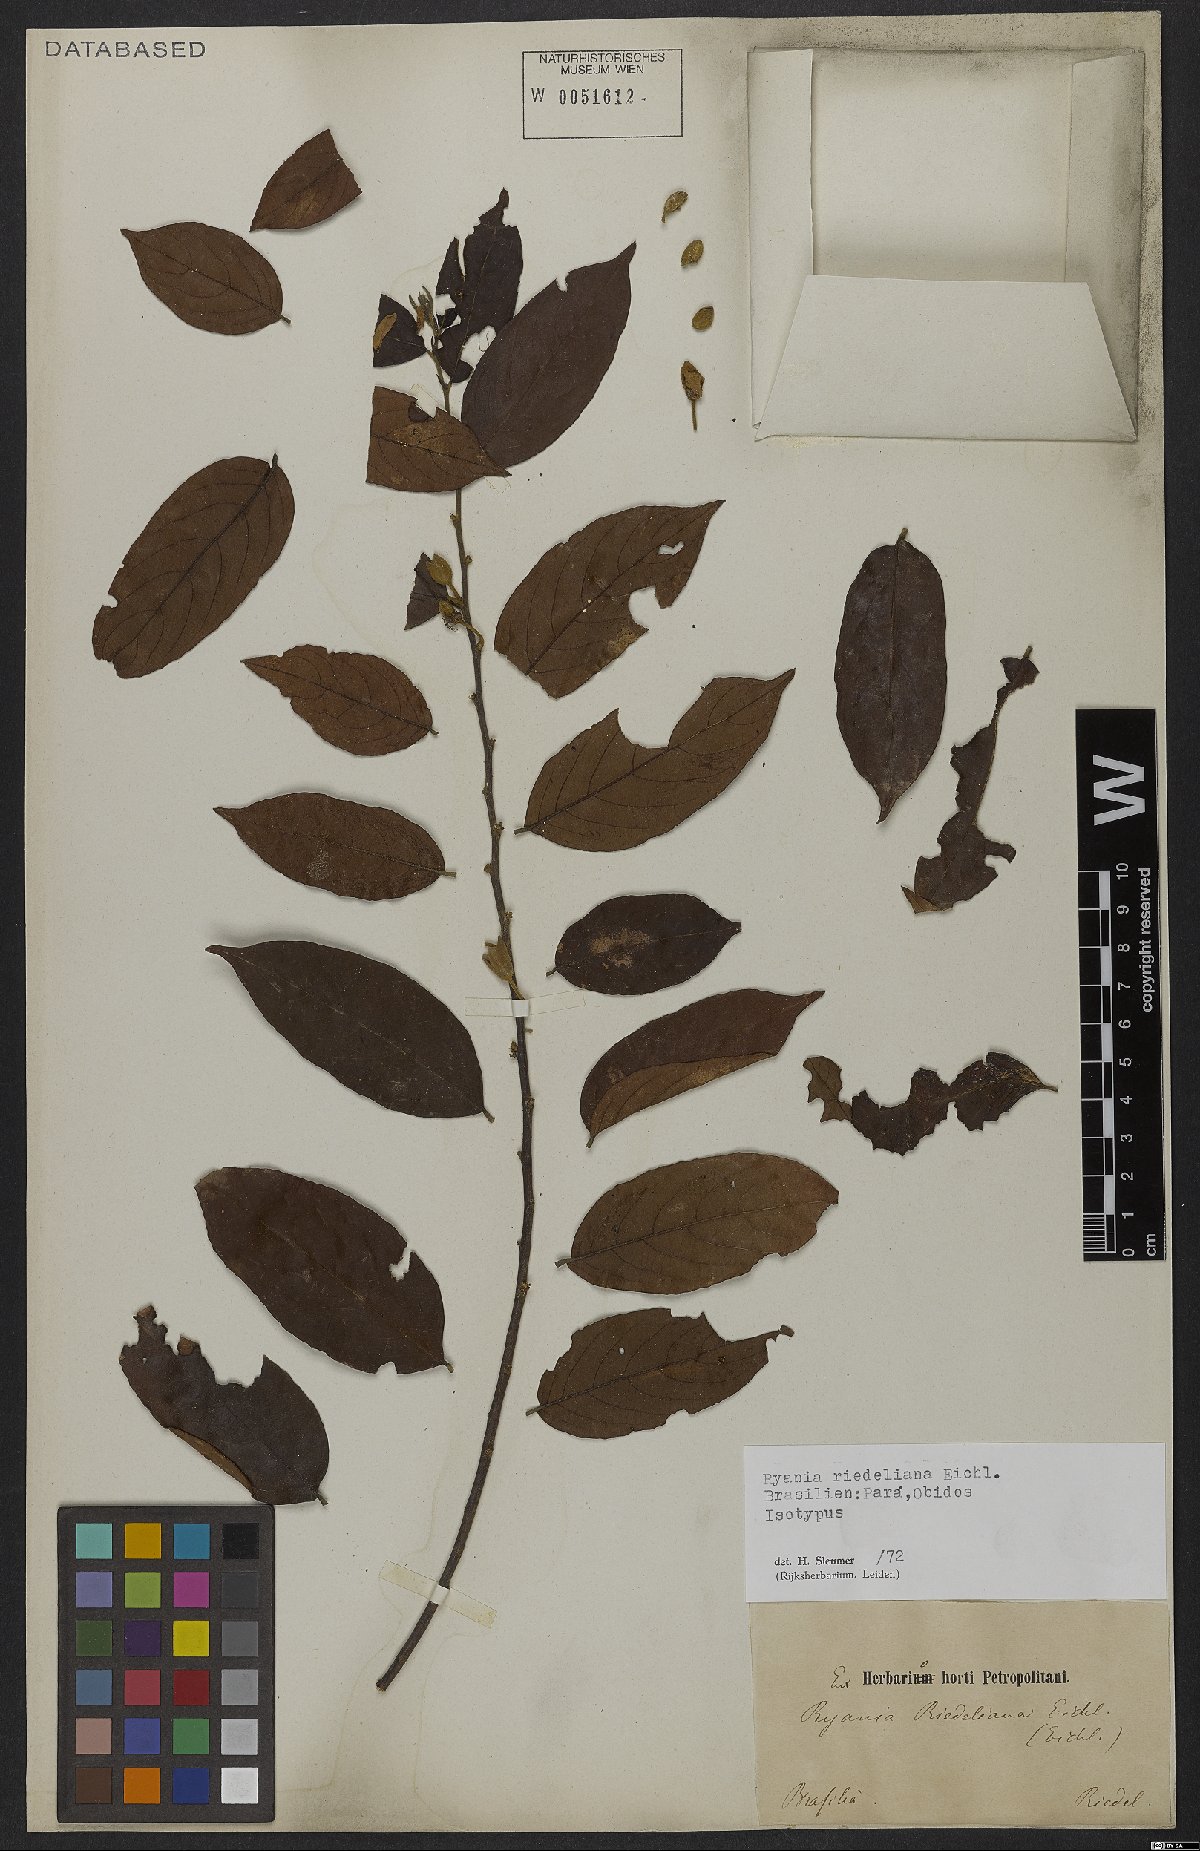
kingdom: Plantae
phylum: Tracheophyta
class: Magnoliopsida
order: Malpighiales
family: Salicaceae
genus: Ryania
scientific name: Ryania riedeliana
